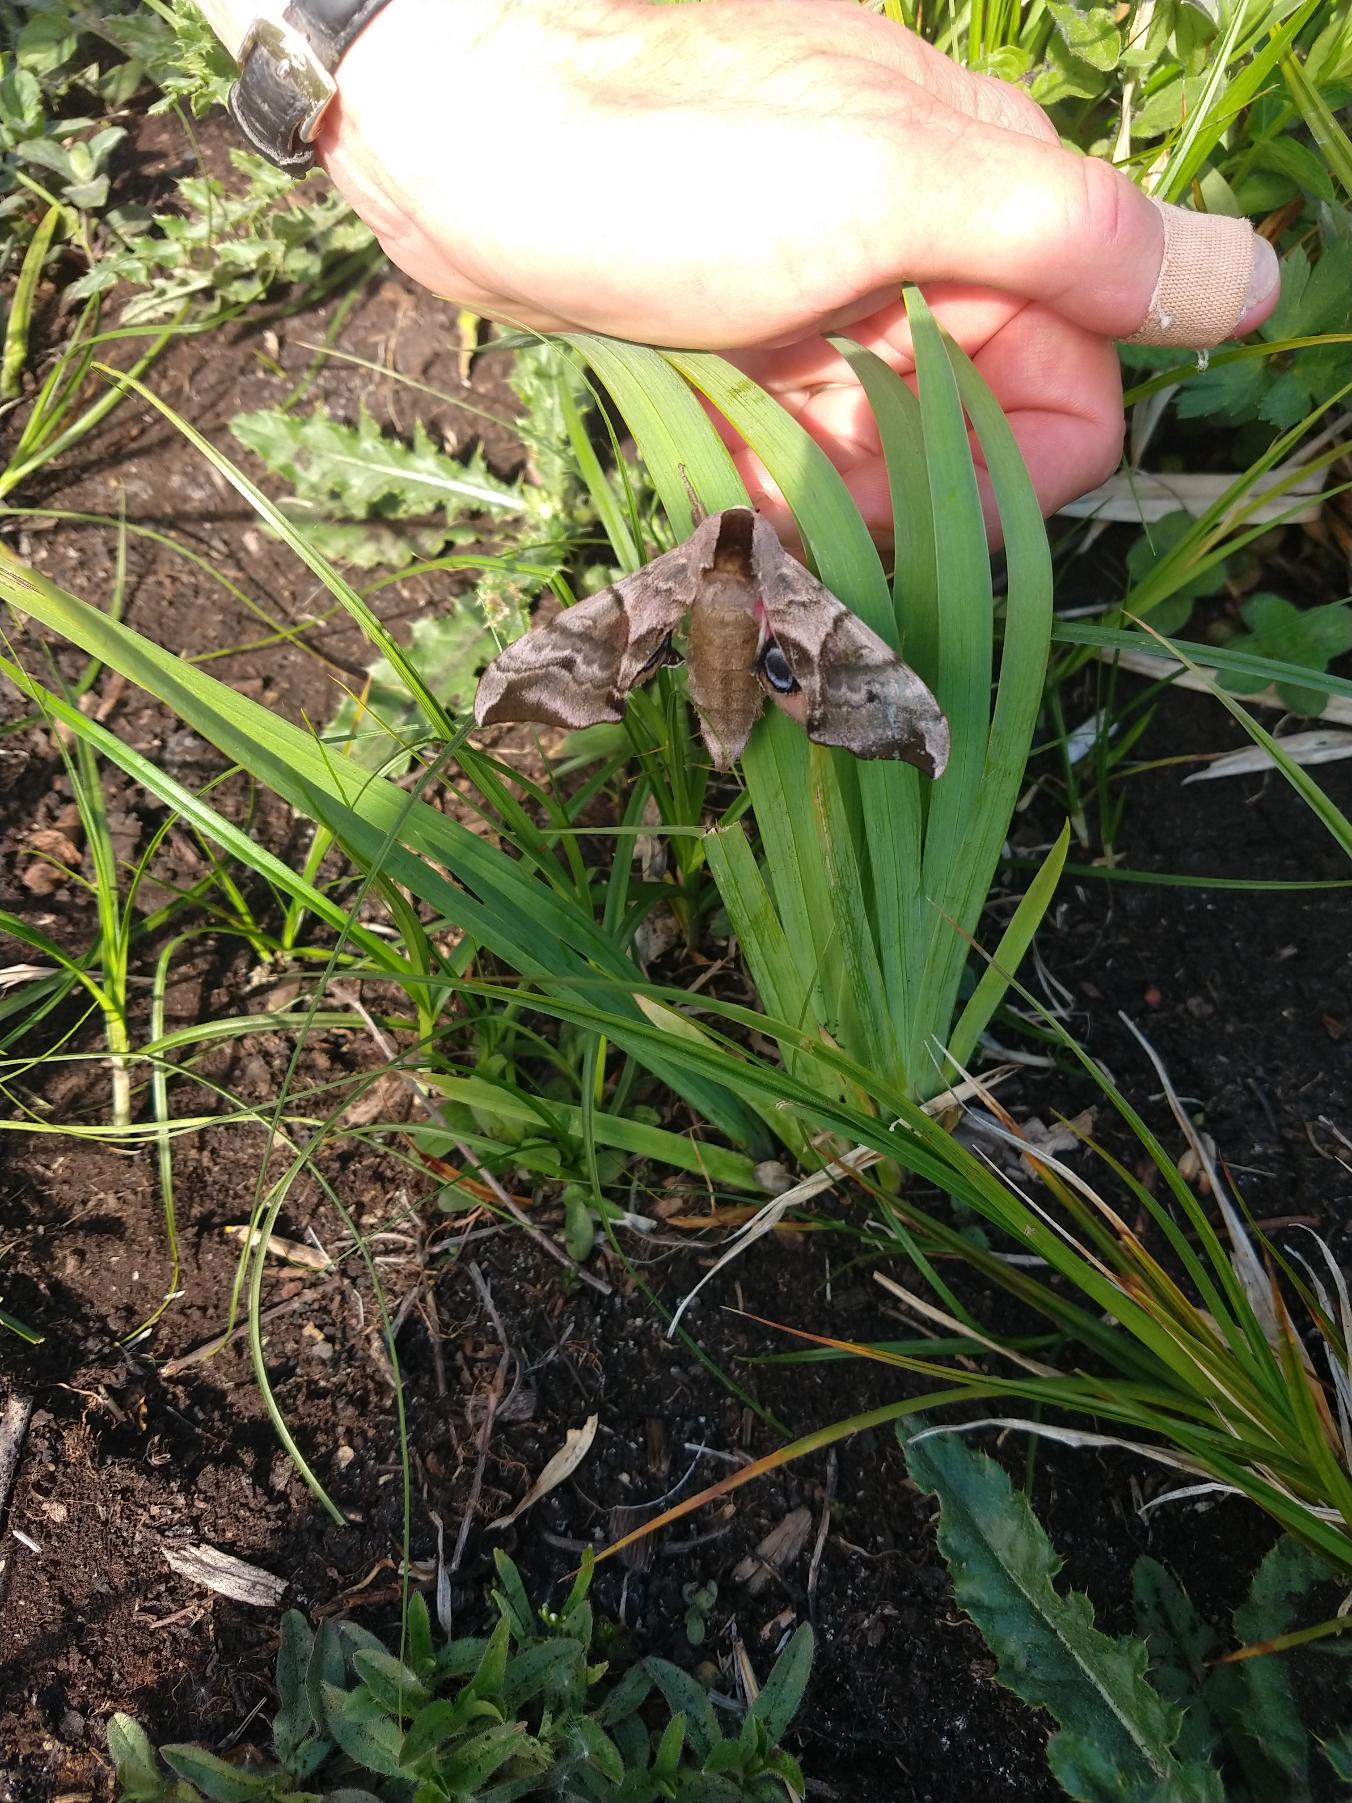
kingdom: Animalia
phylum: Arthropoda
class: Insecta
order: Lepidoptera
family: Sphingidae
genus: Smerinthus
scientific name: Smerinthus ocellata
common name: Aftenpåfugleøje
